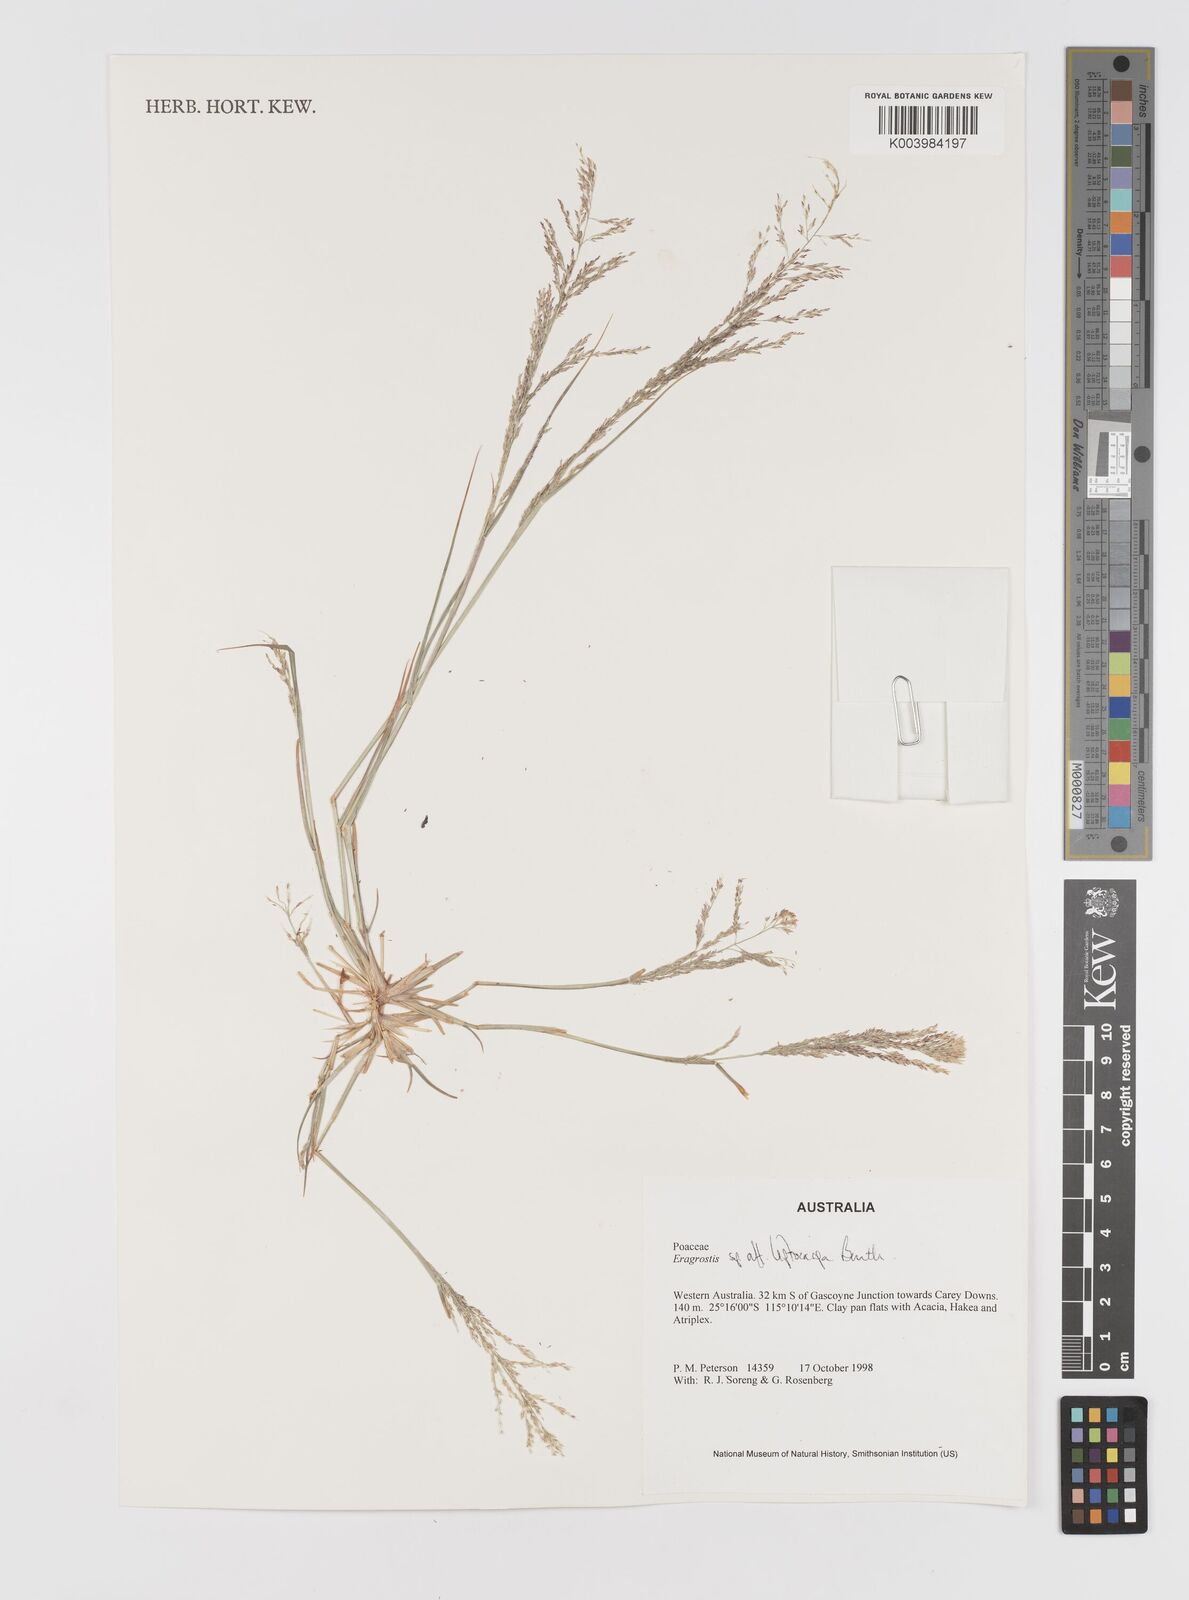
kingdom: Plantae
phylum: Tracheophyta
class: Liliopsida
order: Poales
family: Poaceae
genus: Eragrostis
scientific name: Eragrostis leptocarpa
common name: Drooping love grass
